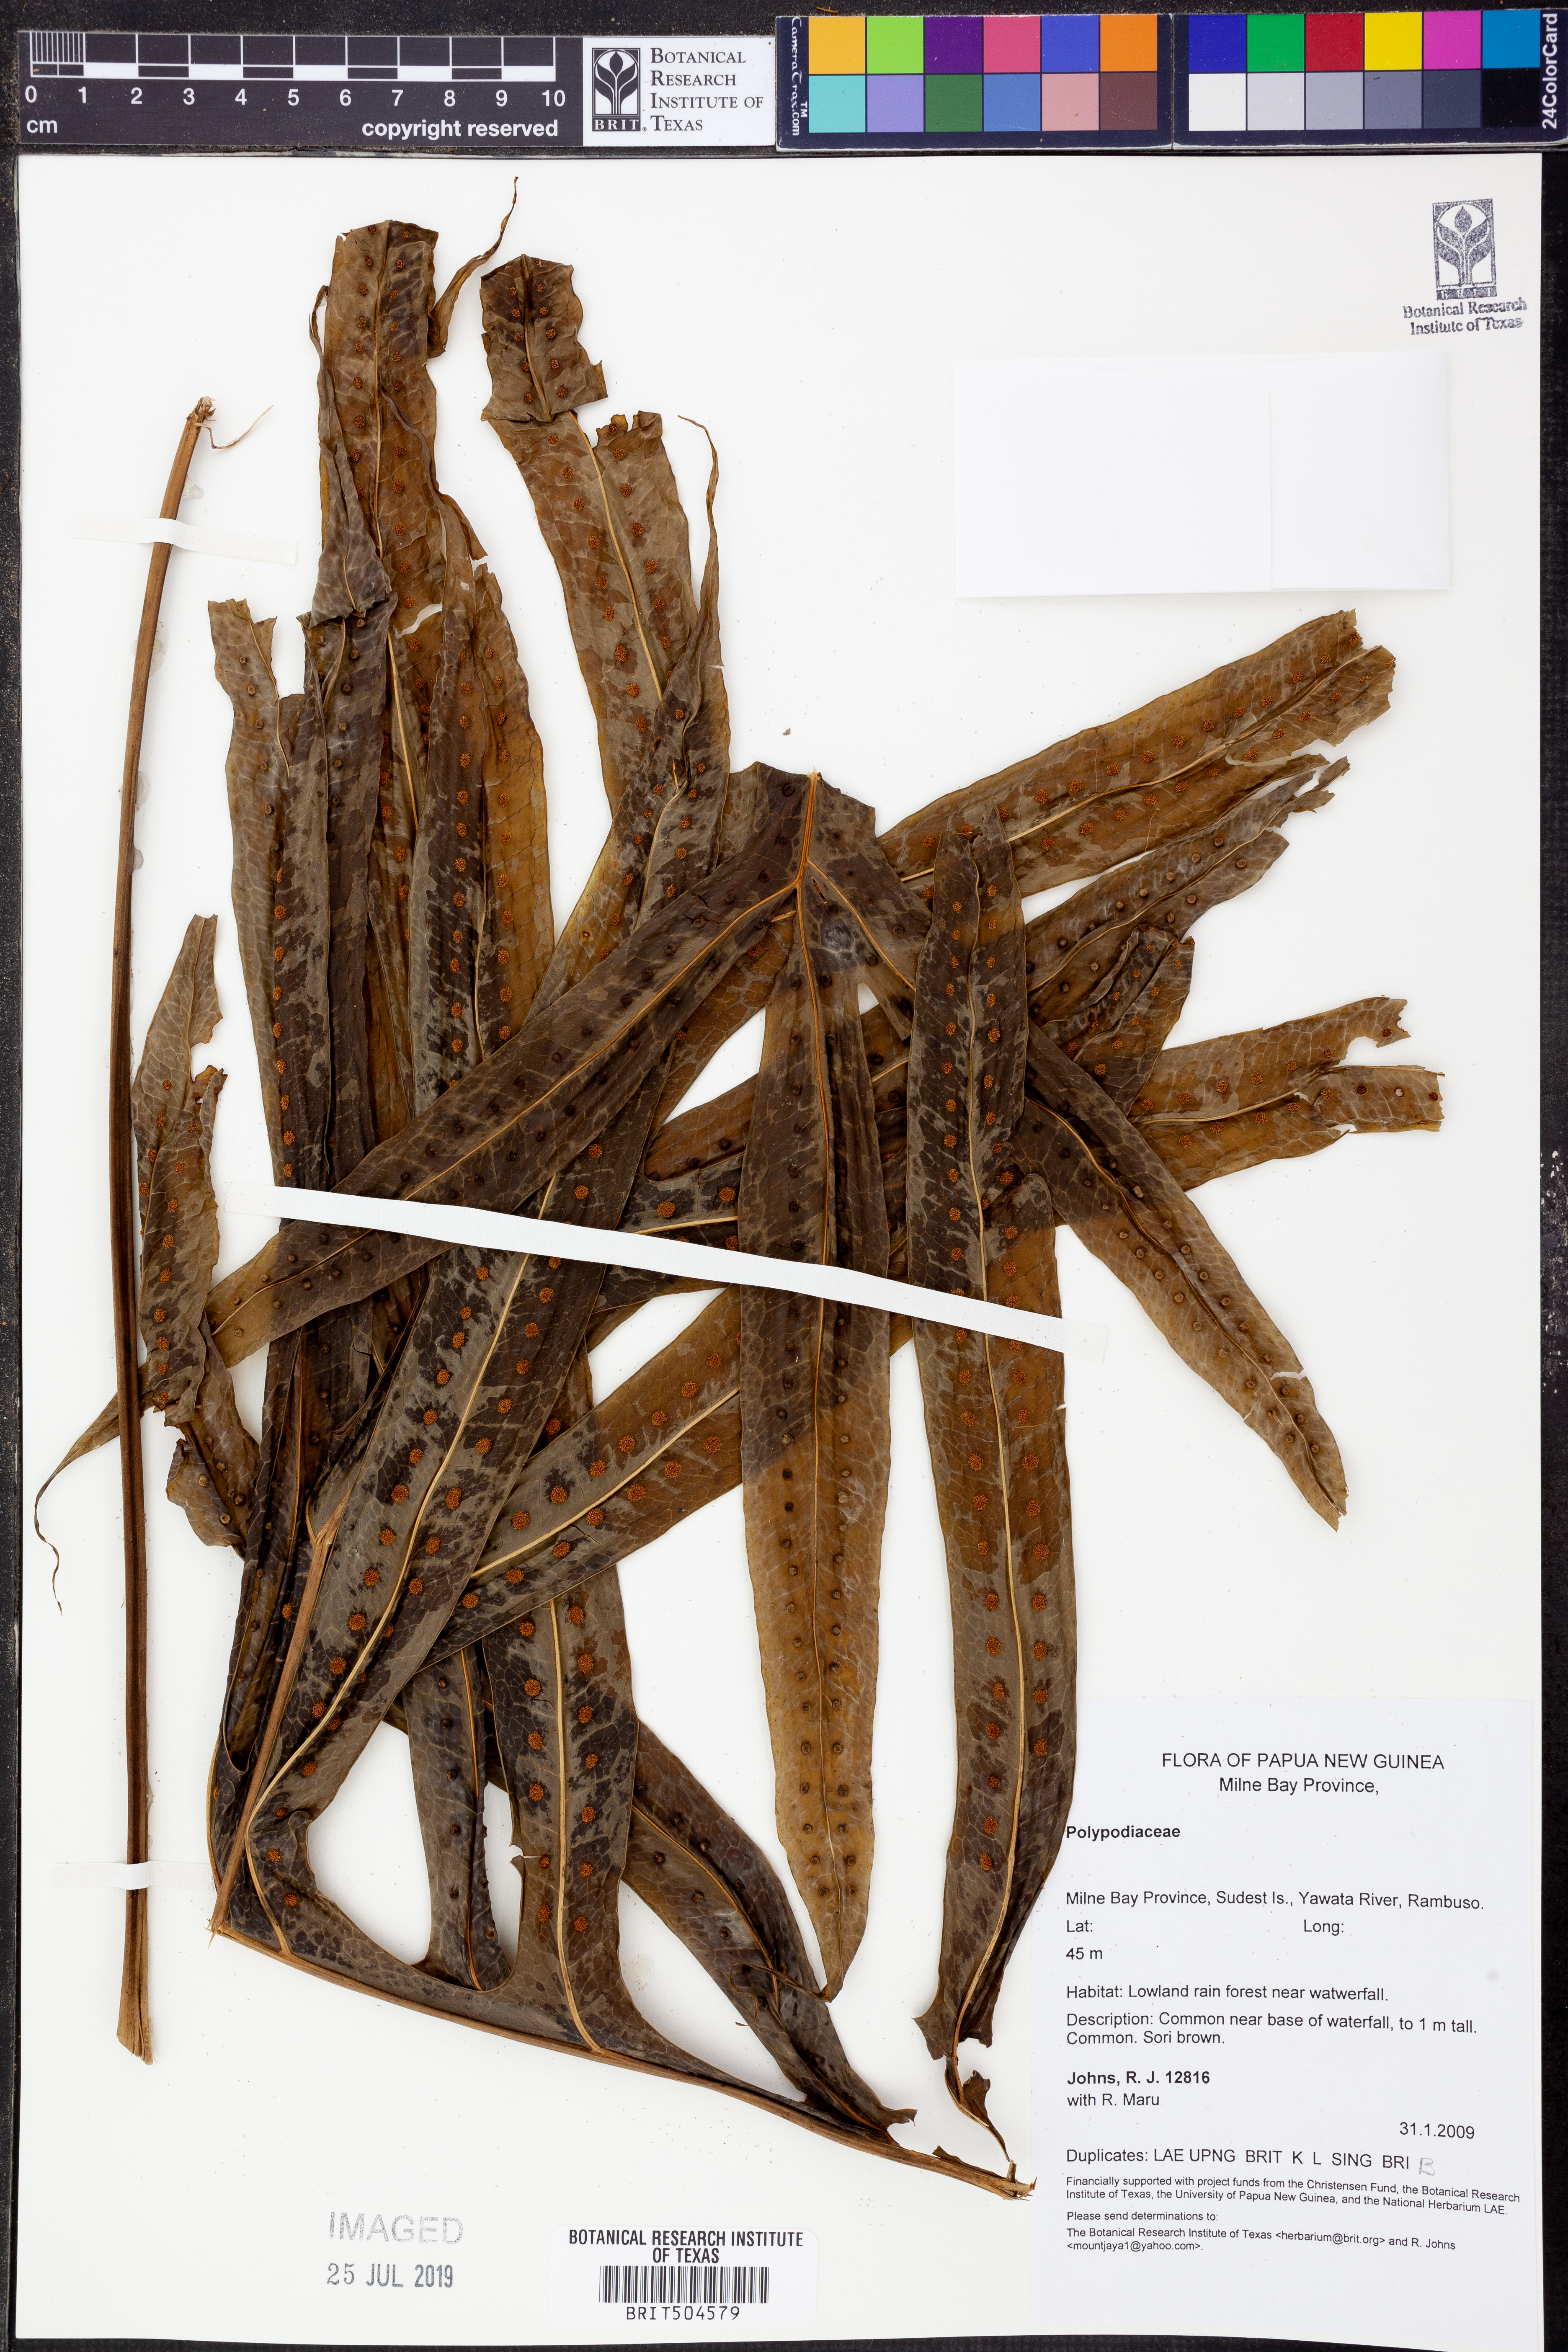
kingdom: Plantae
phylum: Tracheophyta
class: Polypodiopsida
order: Polypodiales
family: Polypodiaceae
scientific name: Polypodiaceae
